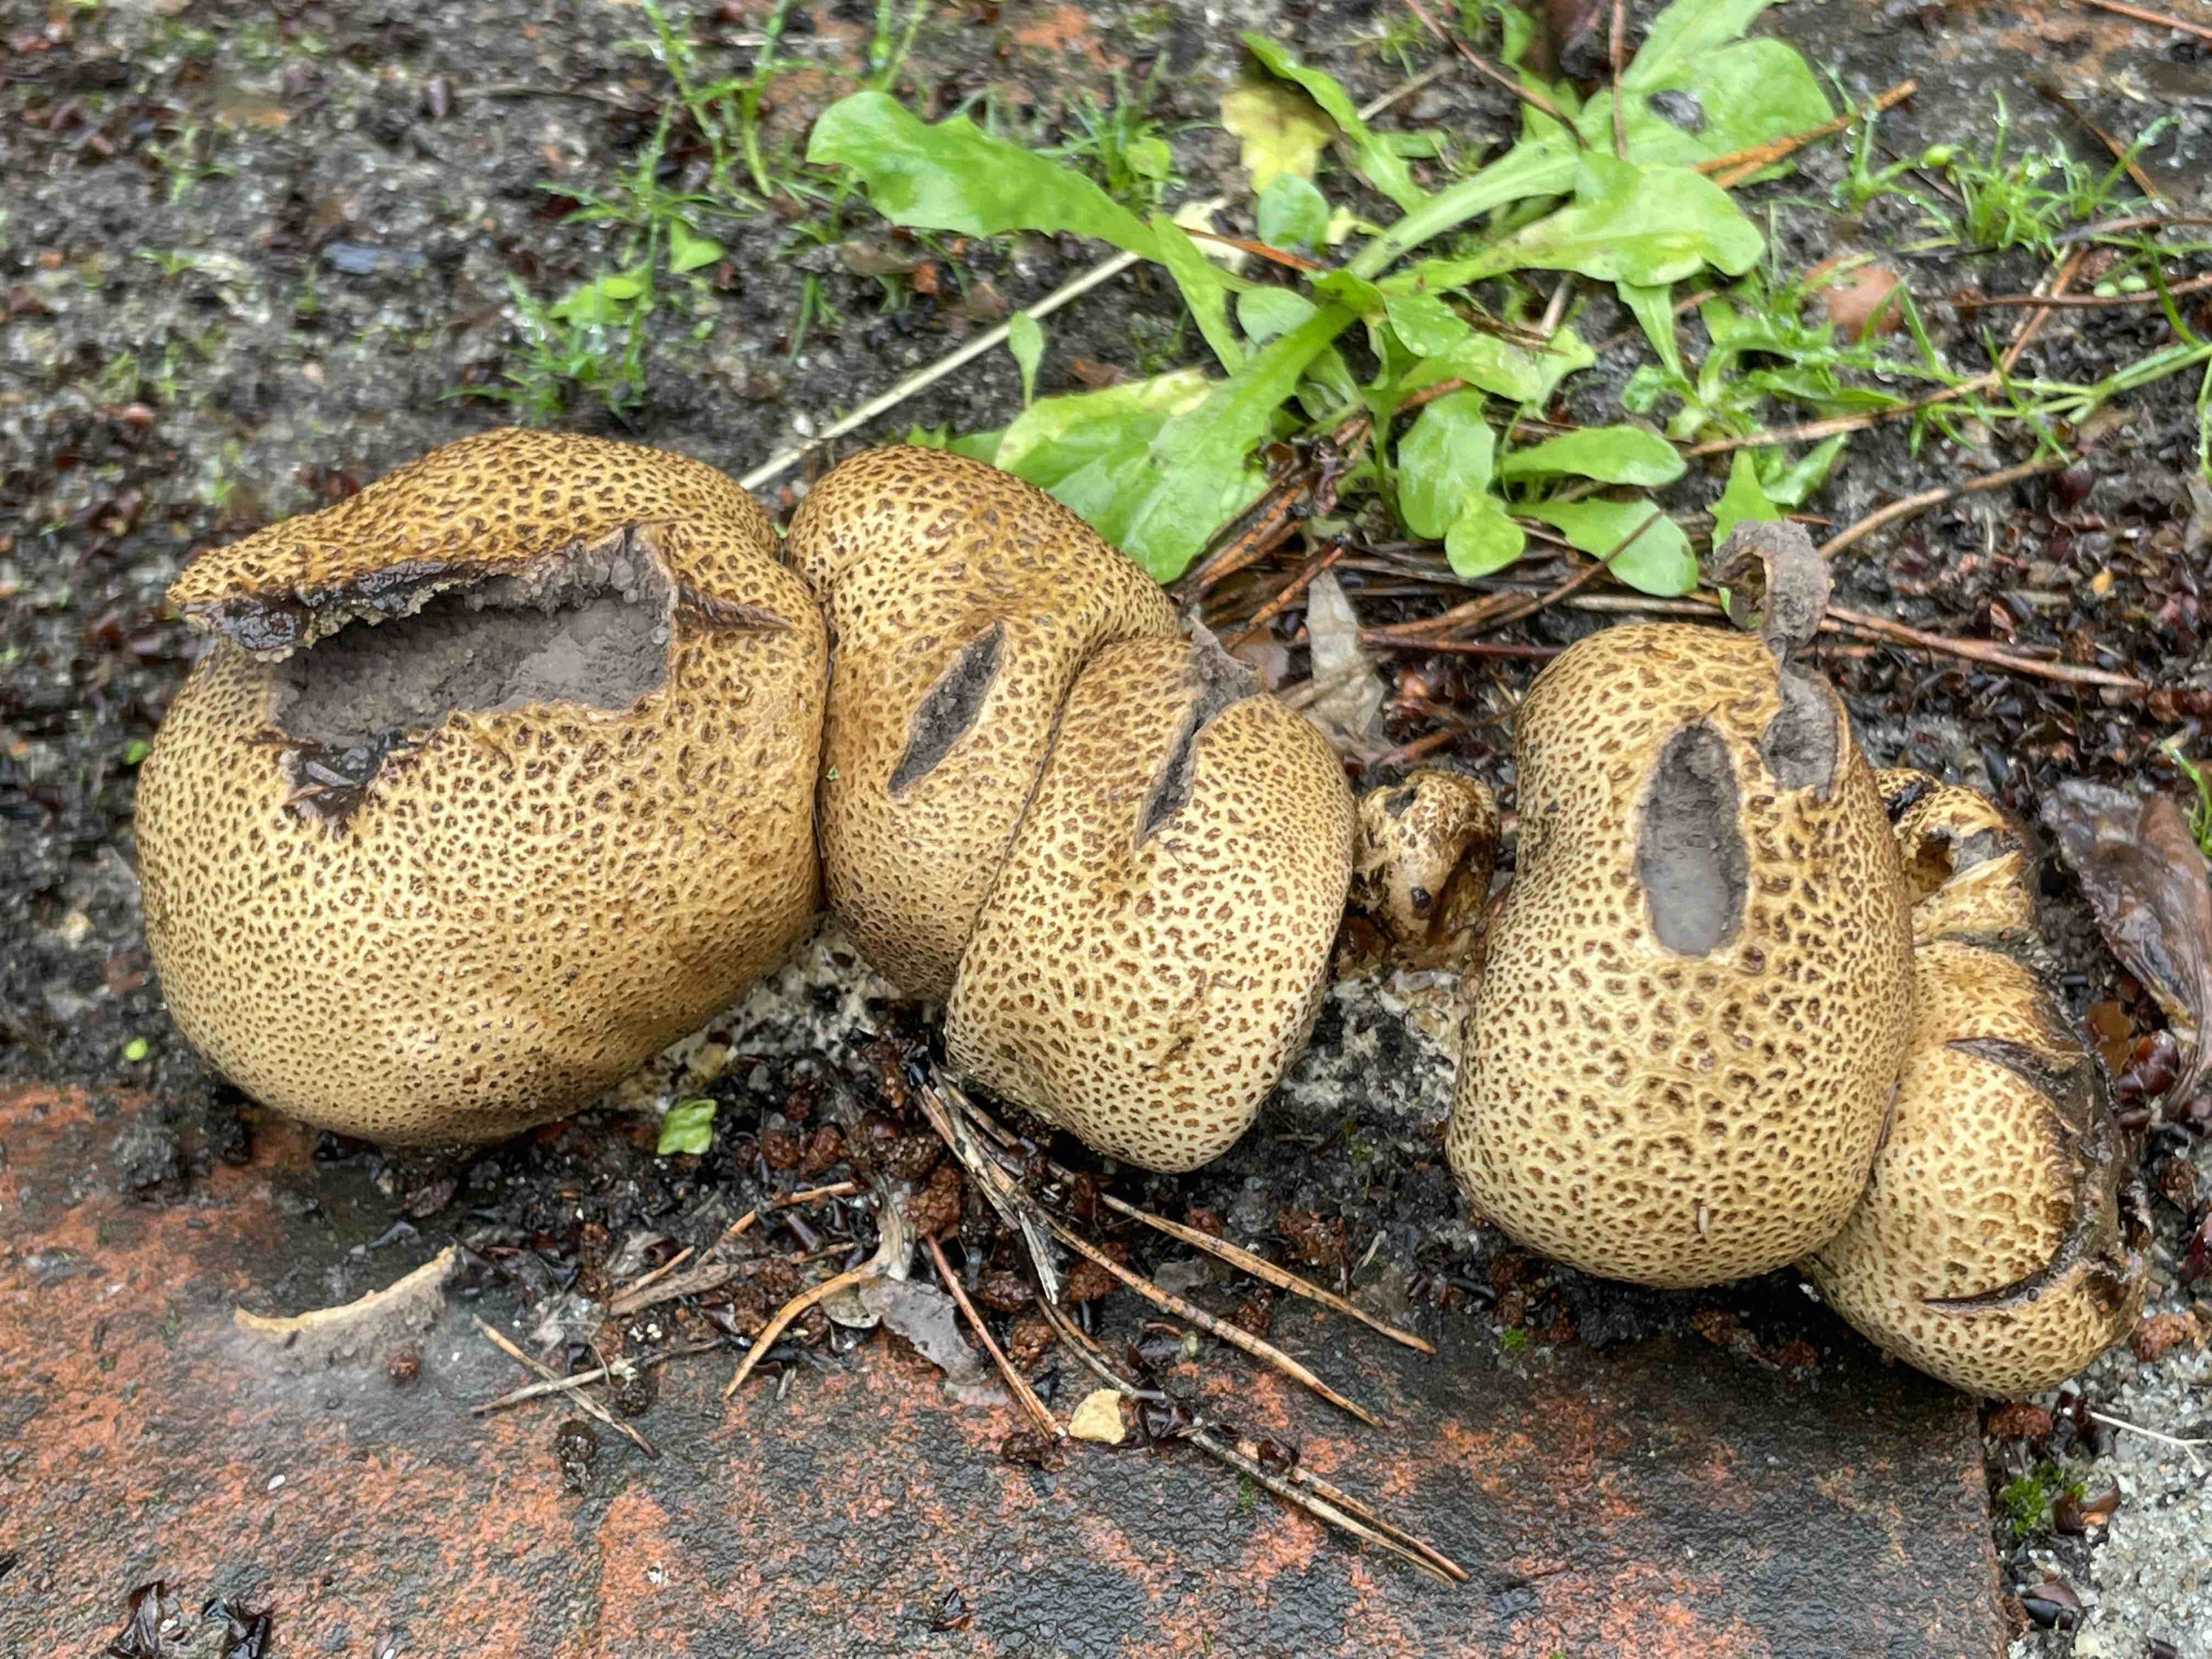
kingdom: Fungi
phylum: Basidiomycota
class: Agaricomycetes
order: Boletales
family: Sclerodermataceae
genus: Scleroderma
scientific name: Scleroderma areolatum
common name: plettet bruskbold
